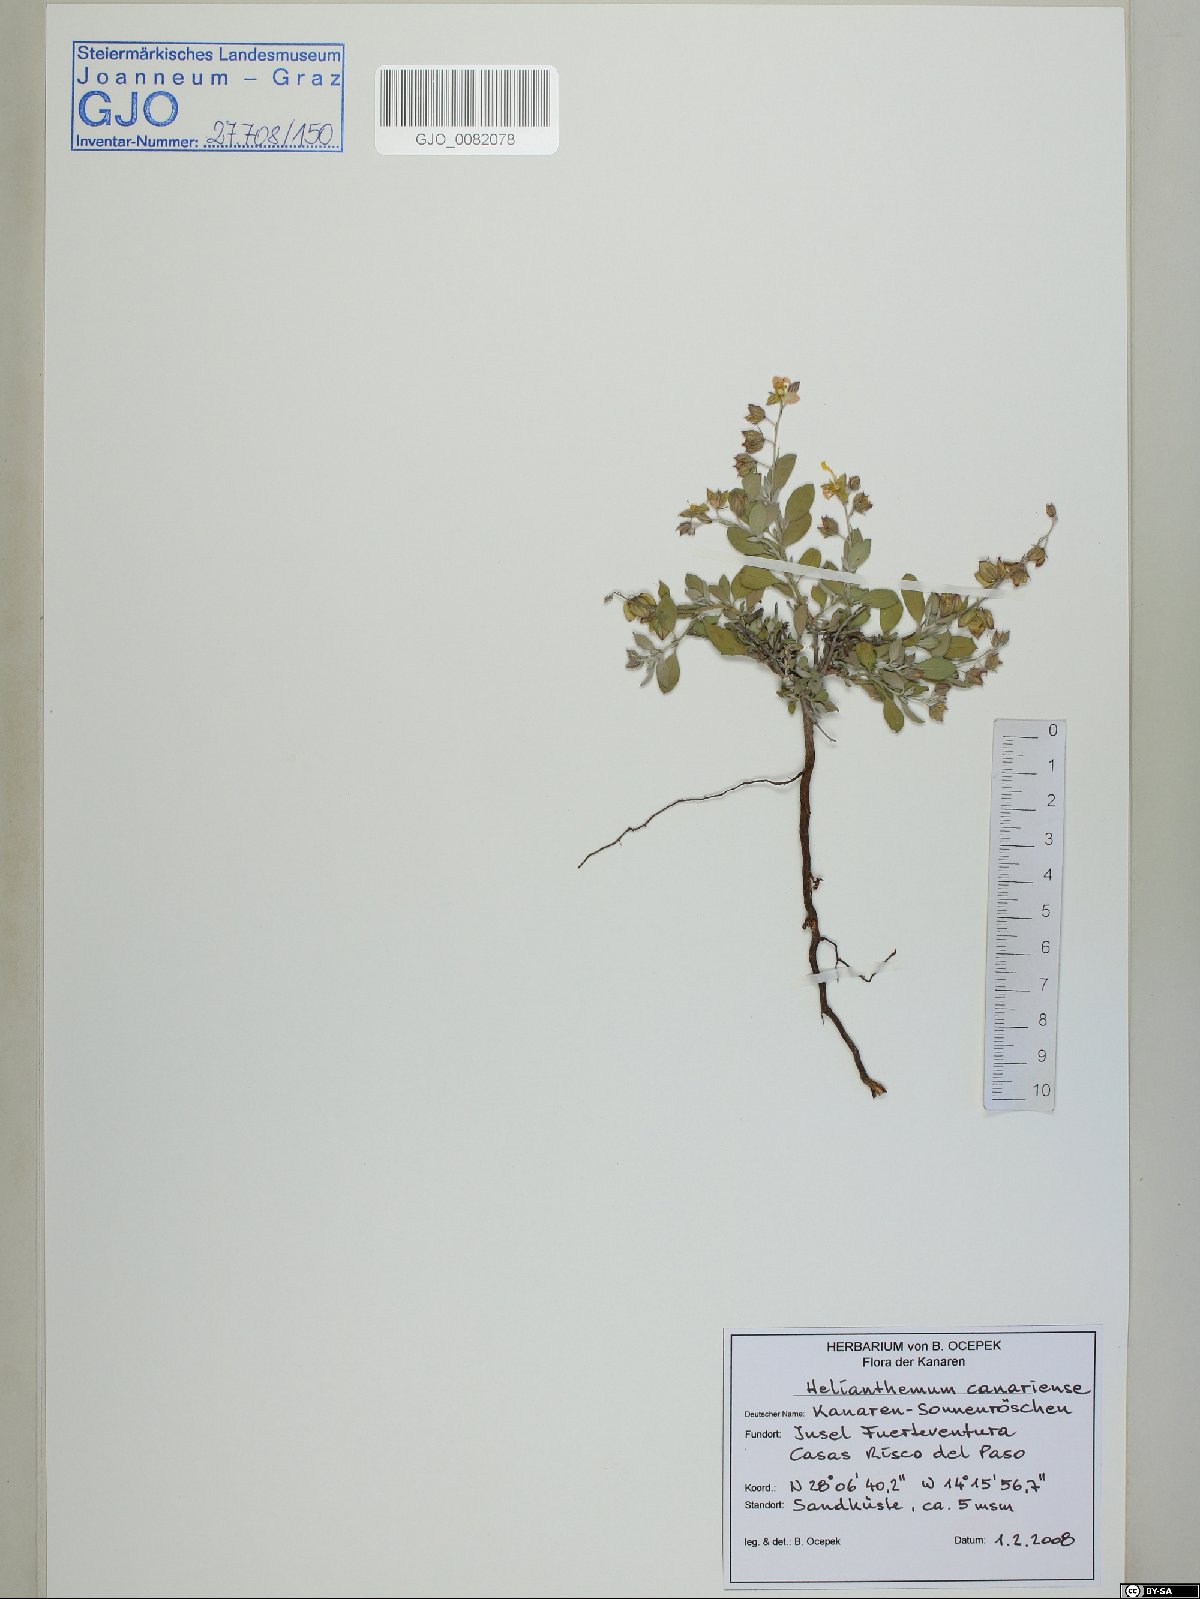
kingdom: Plantae
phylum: Tracheophyta
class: Magnoliopsida
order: Malvales
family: Cistaceae
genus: Helianthemum
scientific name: Helianthemum canariense
